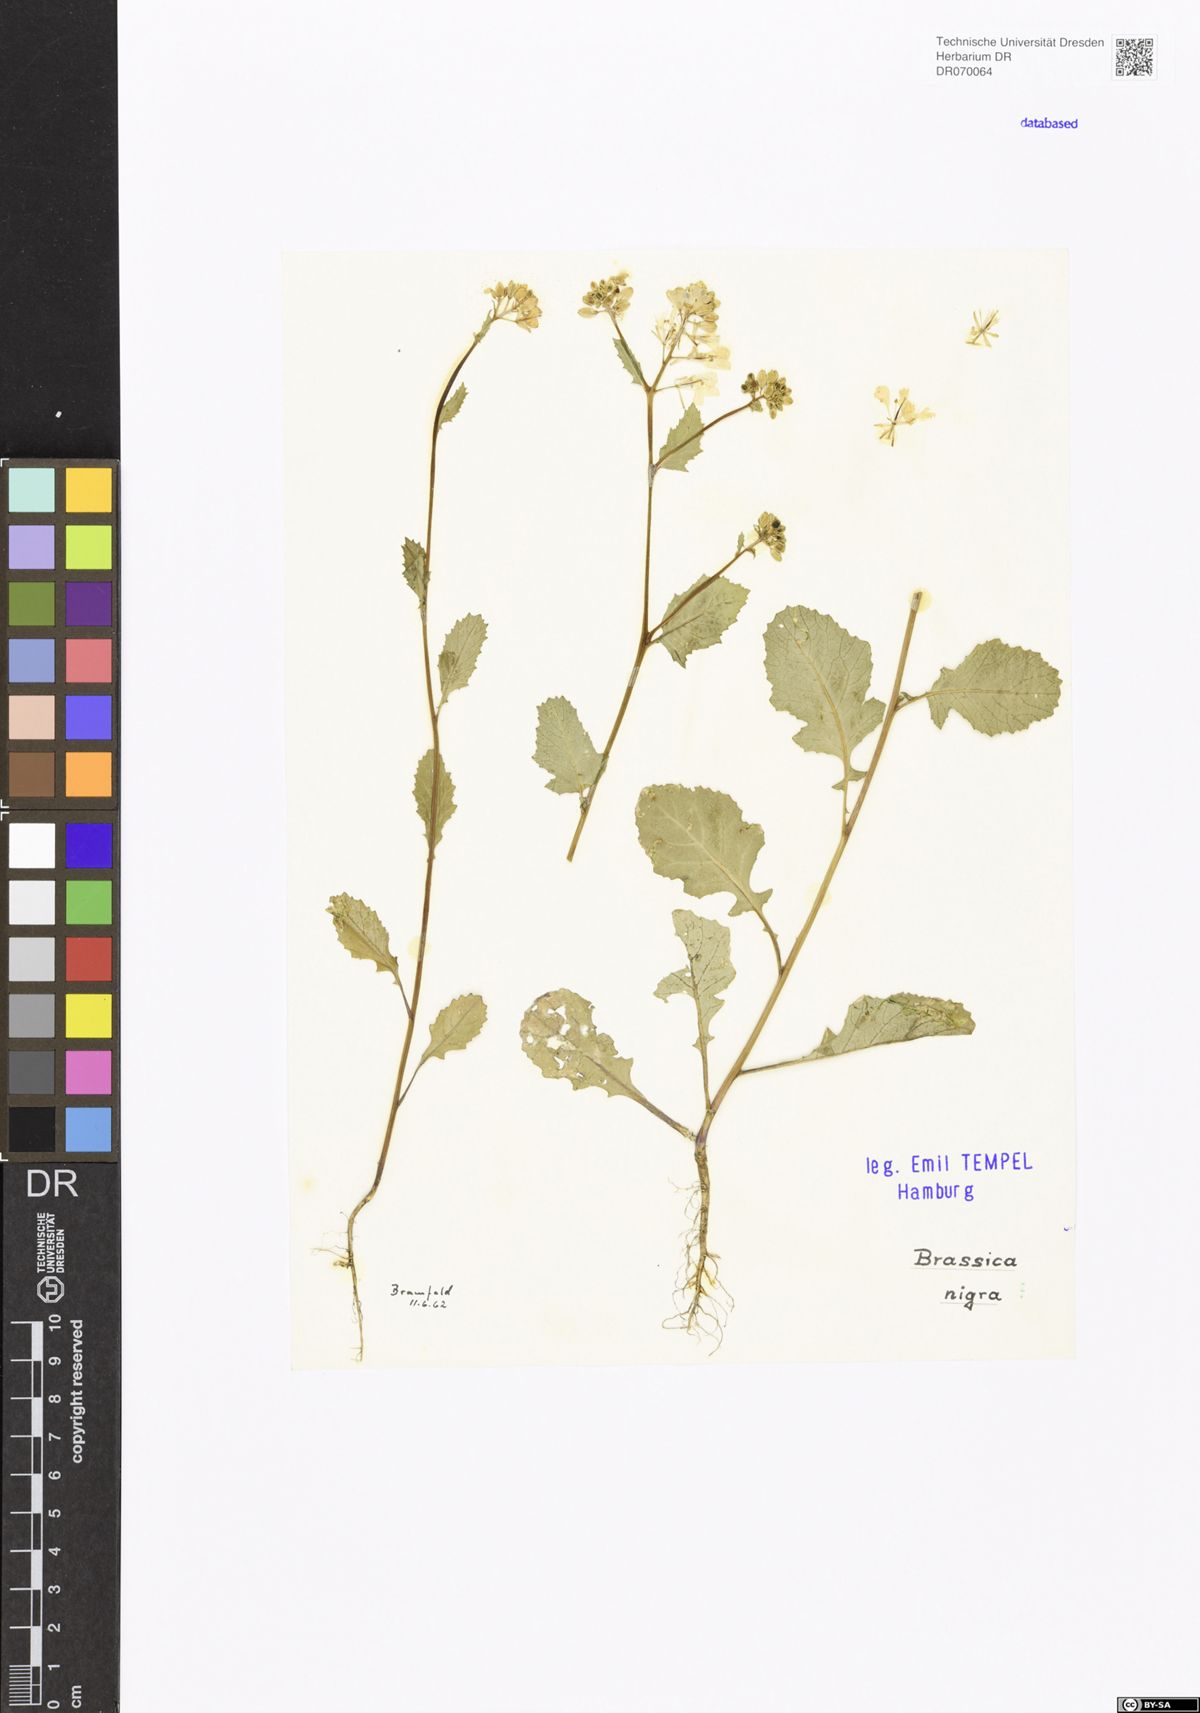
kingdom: Plantae
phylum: Tracheophyta
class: Magnoliopsida
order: Brassicales
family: Brassicaceae
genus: Brassica
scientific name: Brassica nigra
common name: Black mustard
